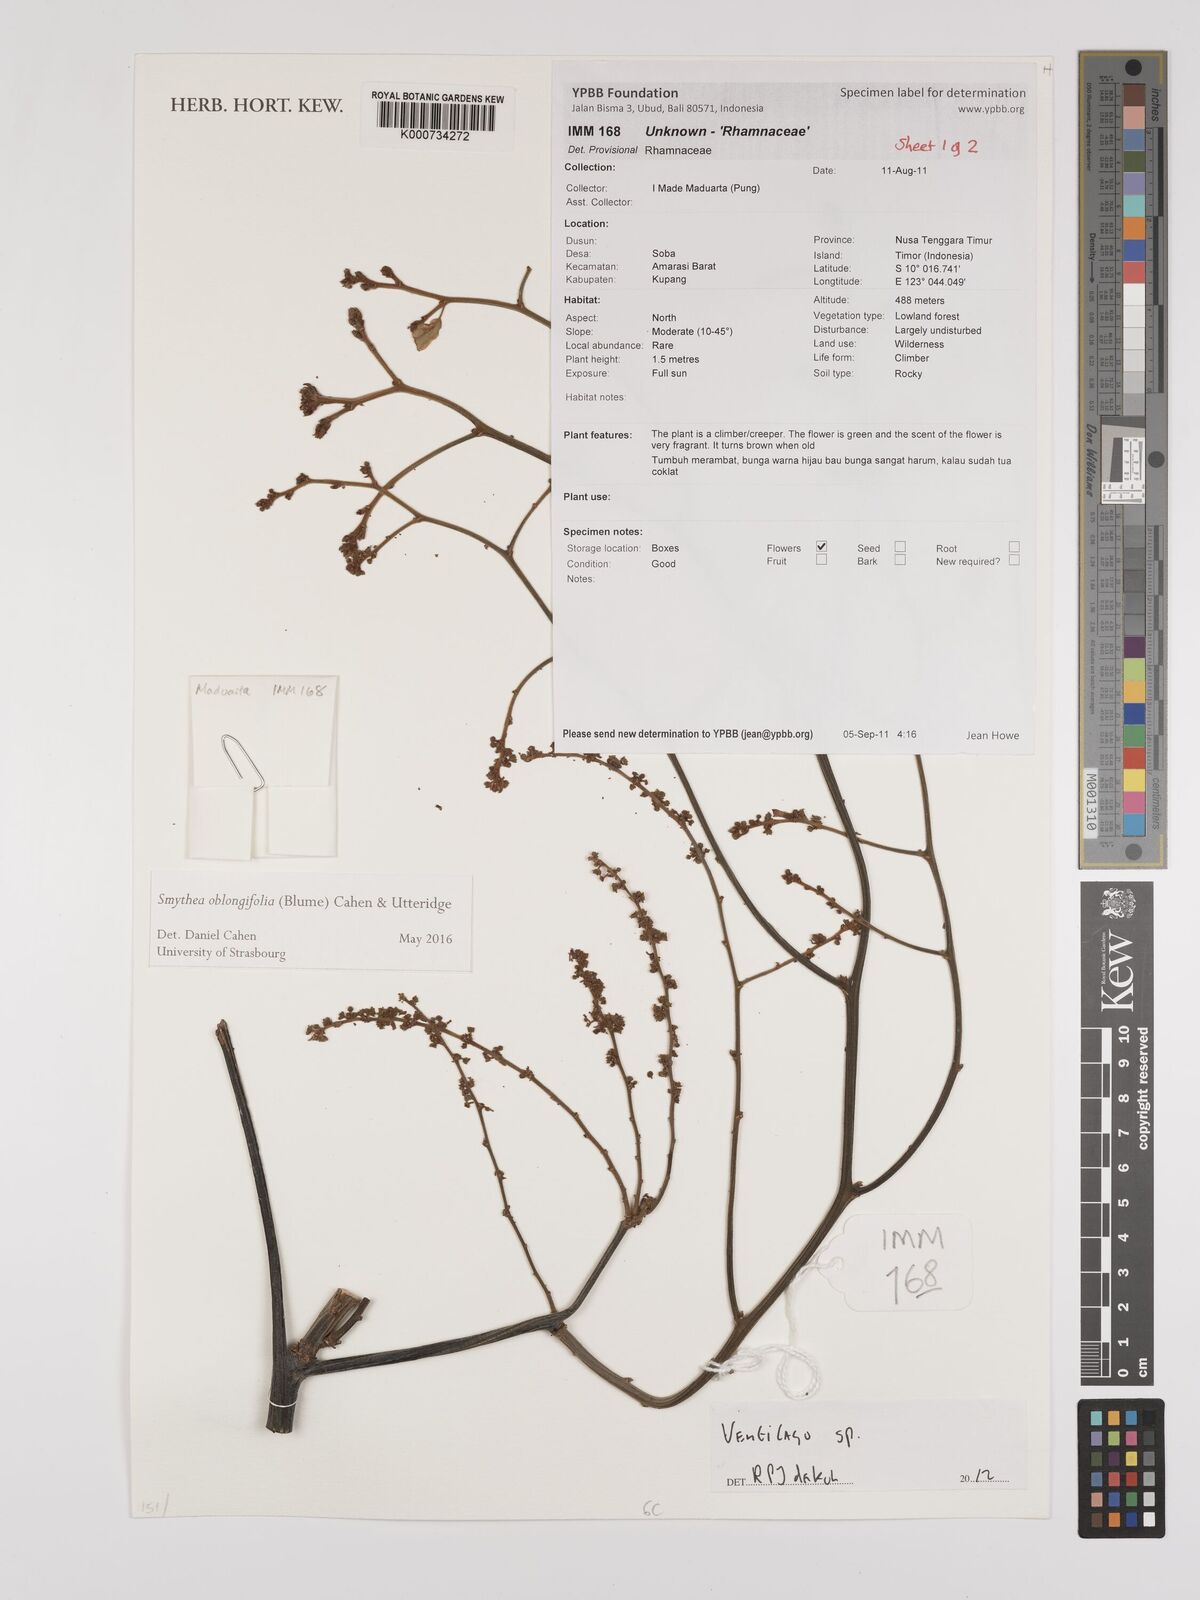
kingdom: Plantae
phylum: Tracheophyta
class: Magnoliopsida
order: Rosales
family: Rhamnaceae
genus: Ventilago
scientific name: Ventilago
